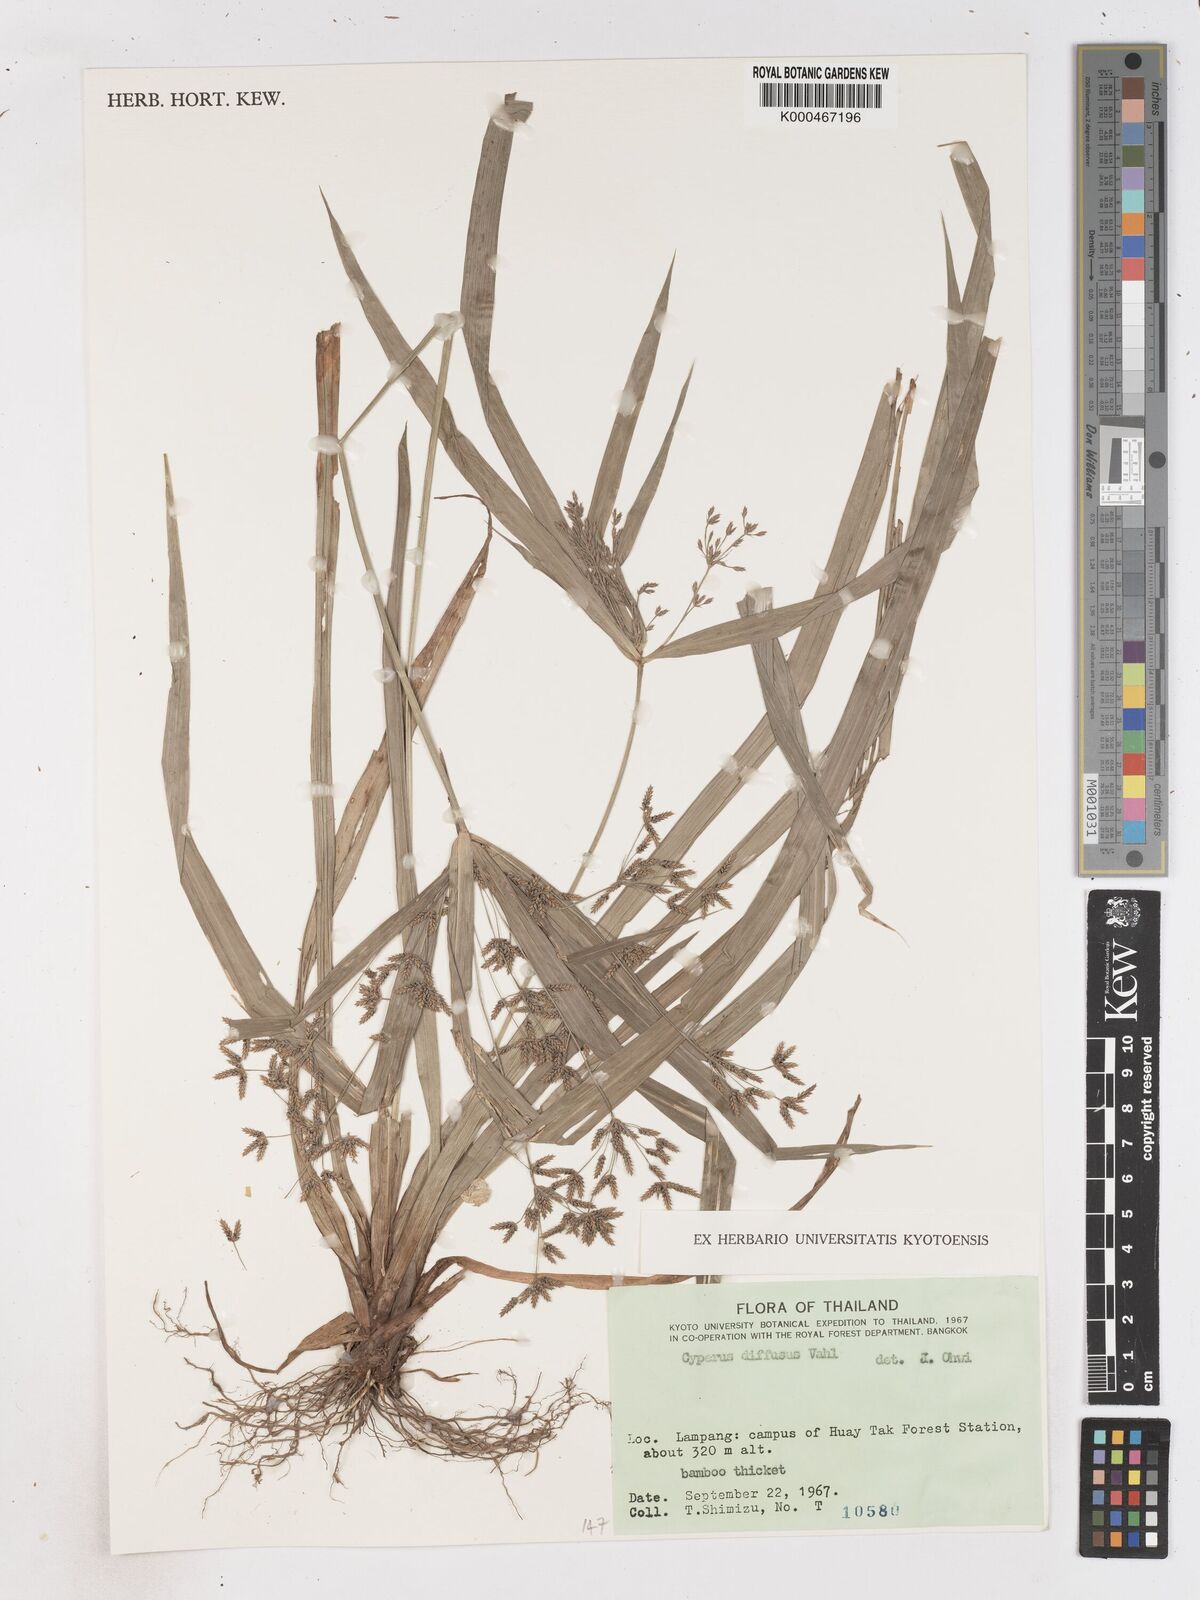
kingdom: Plantae
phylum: Tracheophyta
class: Liliopsida
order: Poales
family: Cyperaceae
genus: Cyperus
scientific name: Cyperus diffusus
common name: Dwarf umbrella grass
